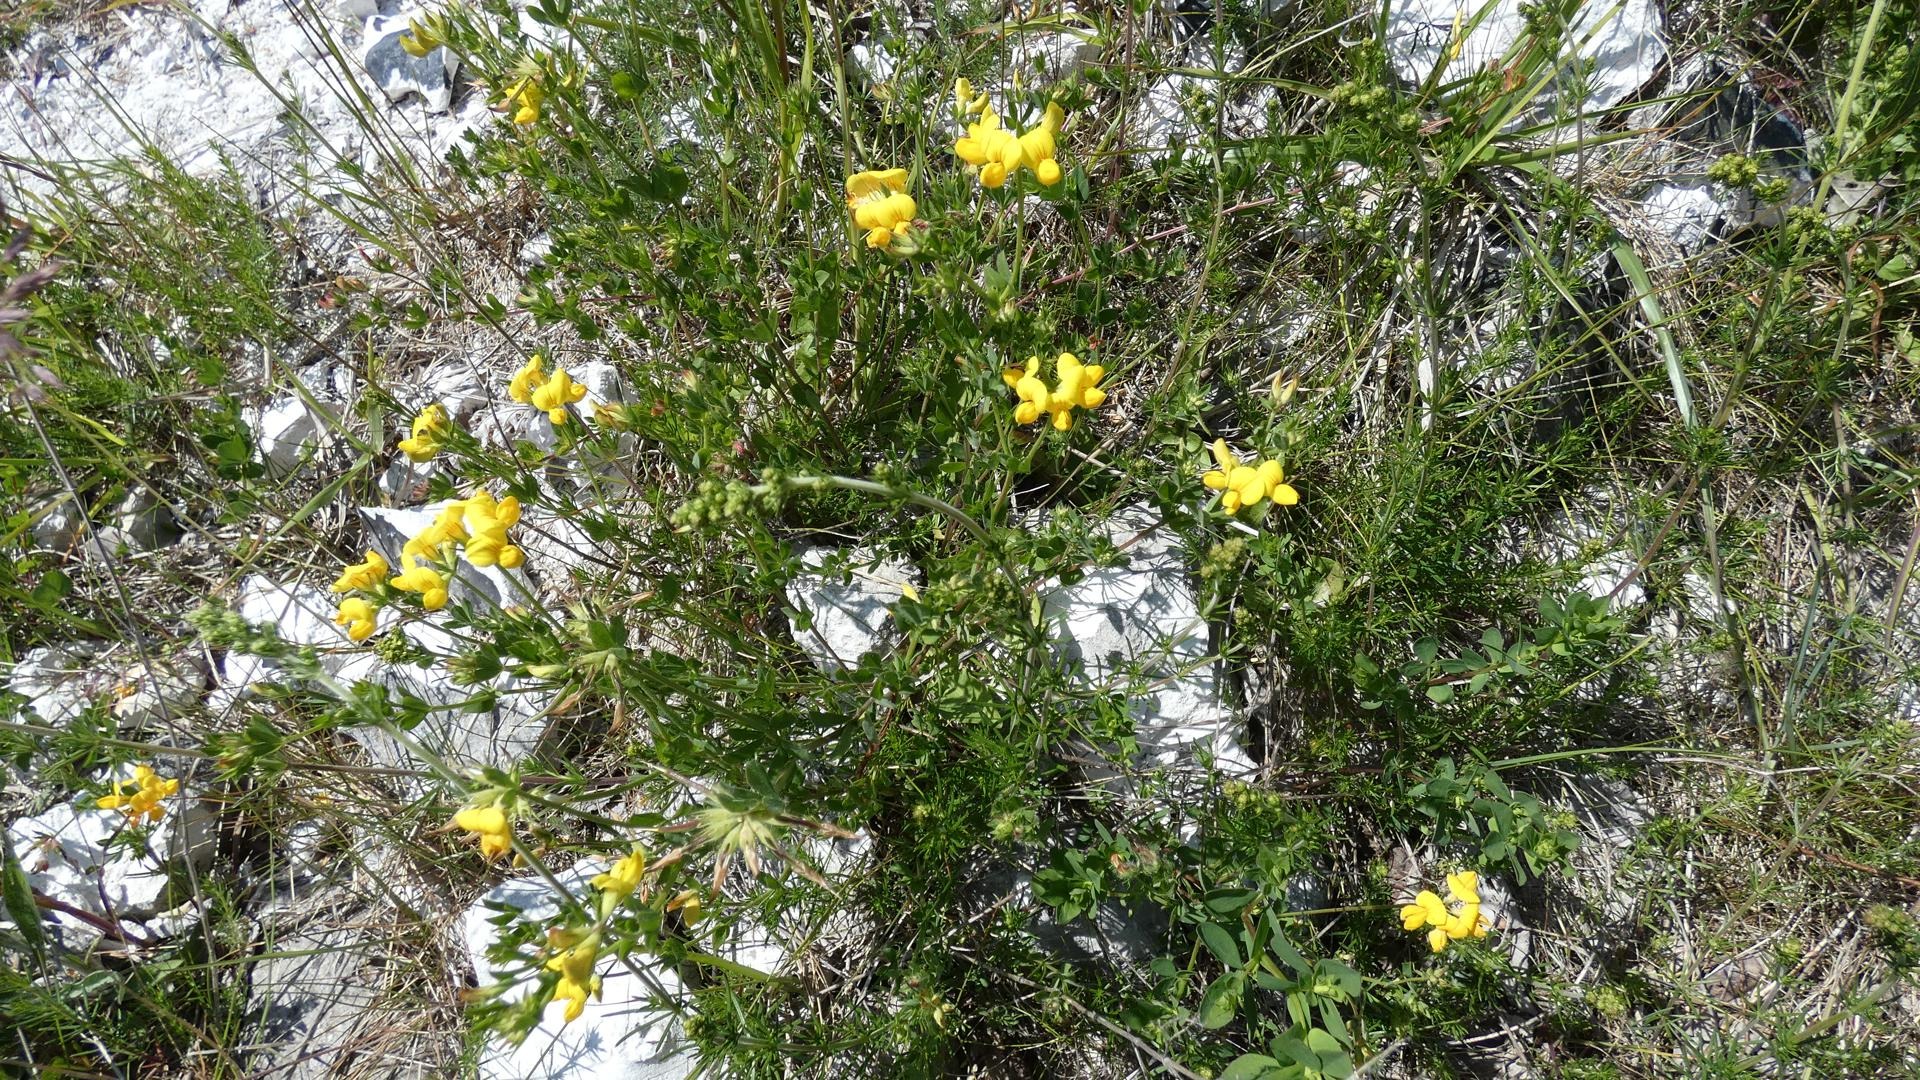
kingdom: Plantae
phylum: Tracheophyta
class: Magnoliopsida
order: Fabales
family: Fabaceae
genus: Lotus
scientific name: Lotus corniculatus
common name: Almindelig kællingetand
